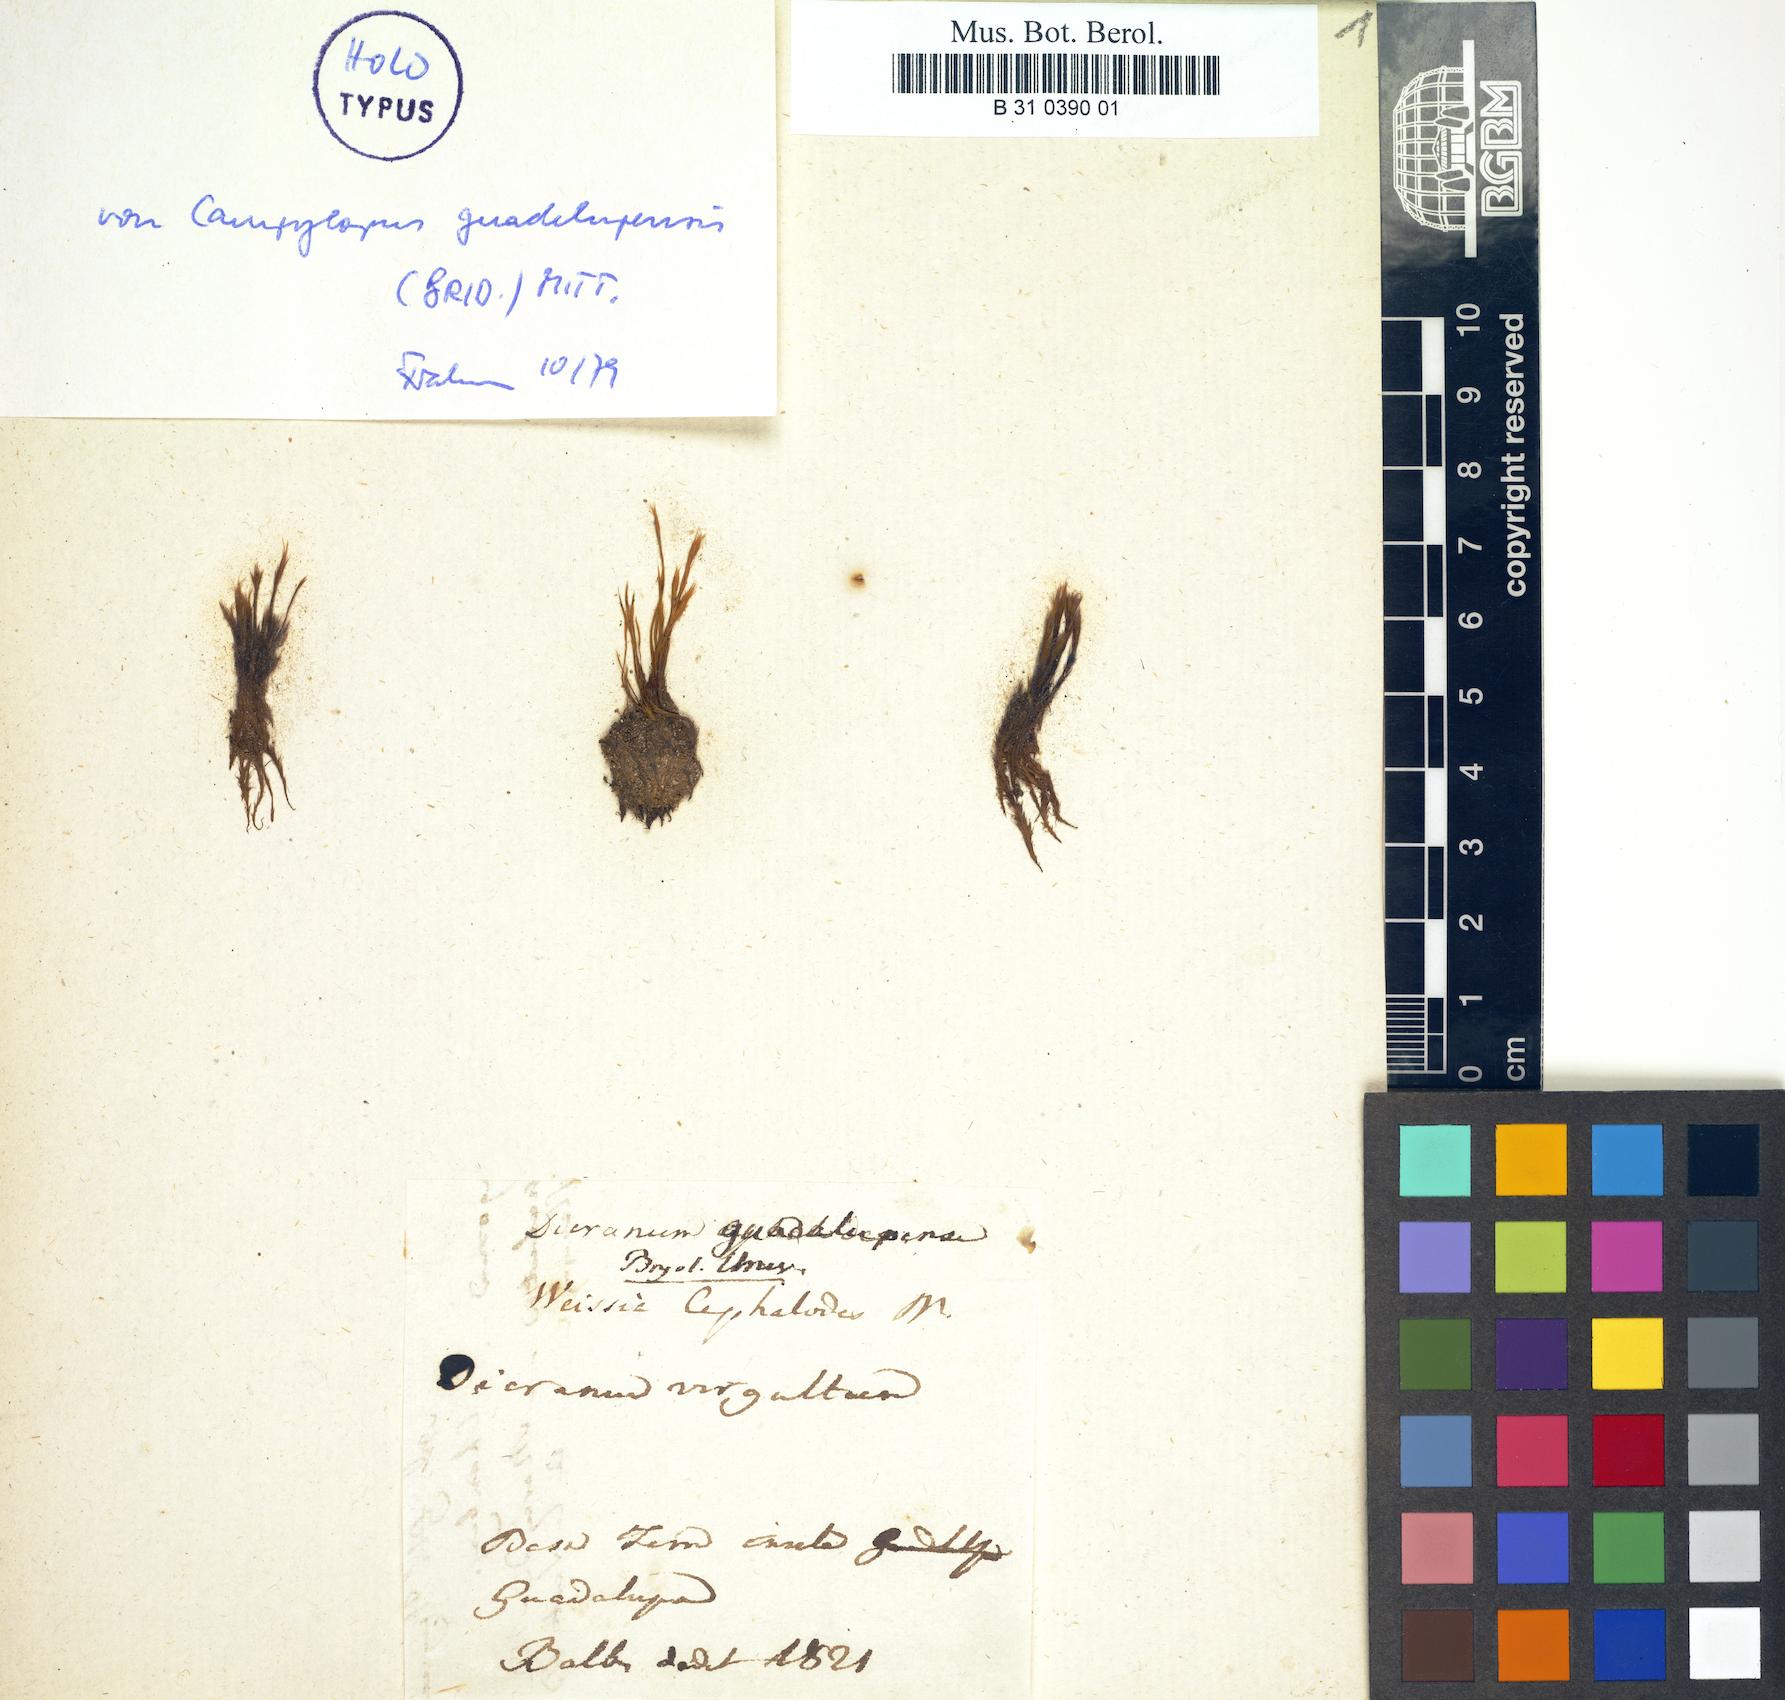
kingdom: Plantae
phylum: Bryophyta
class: Bryopsida
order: Dicranales
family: Leucobryaceae
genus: Pilopogon
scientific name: Pilopogon guadalupensis
